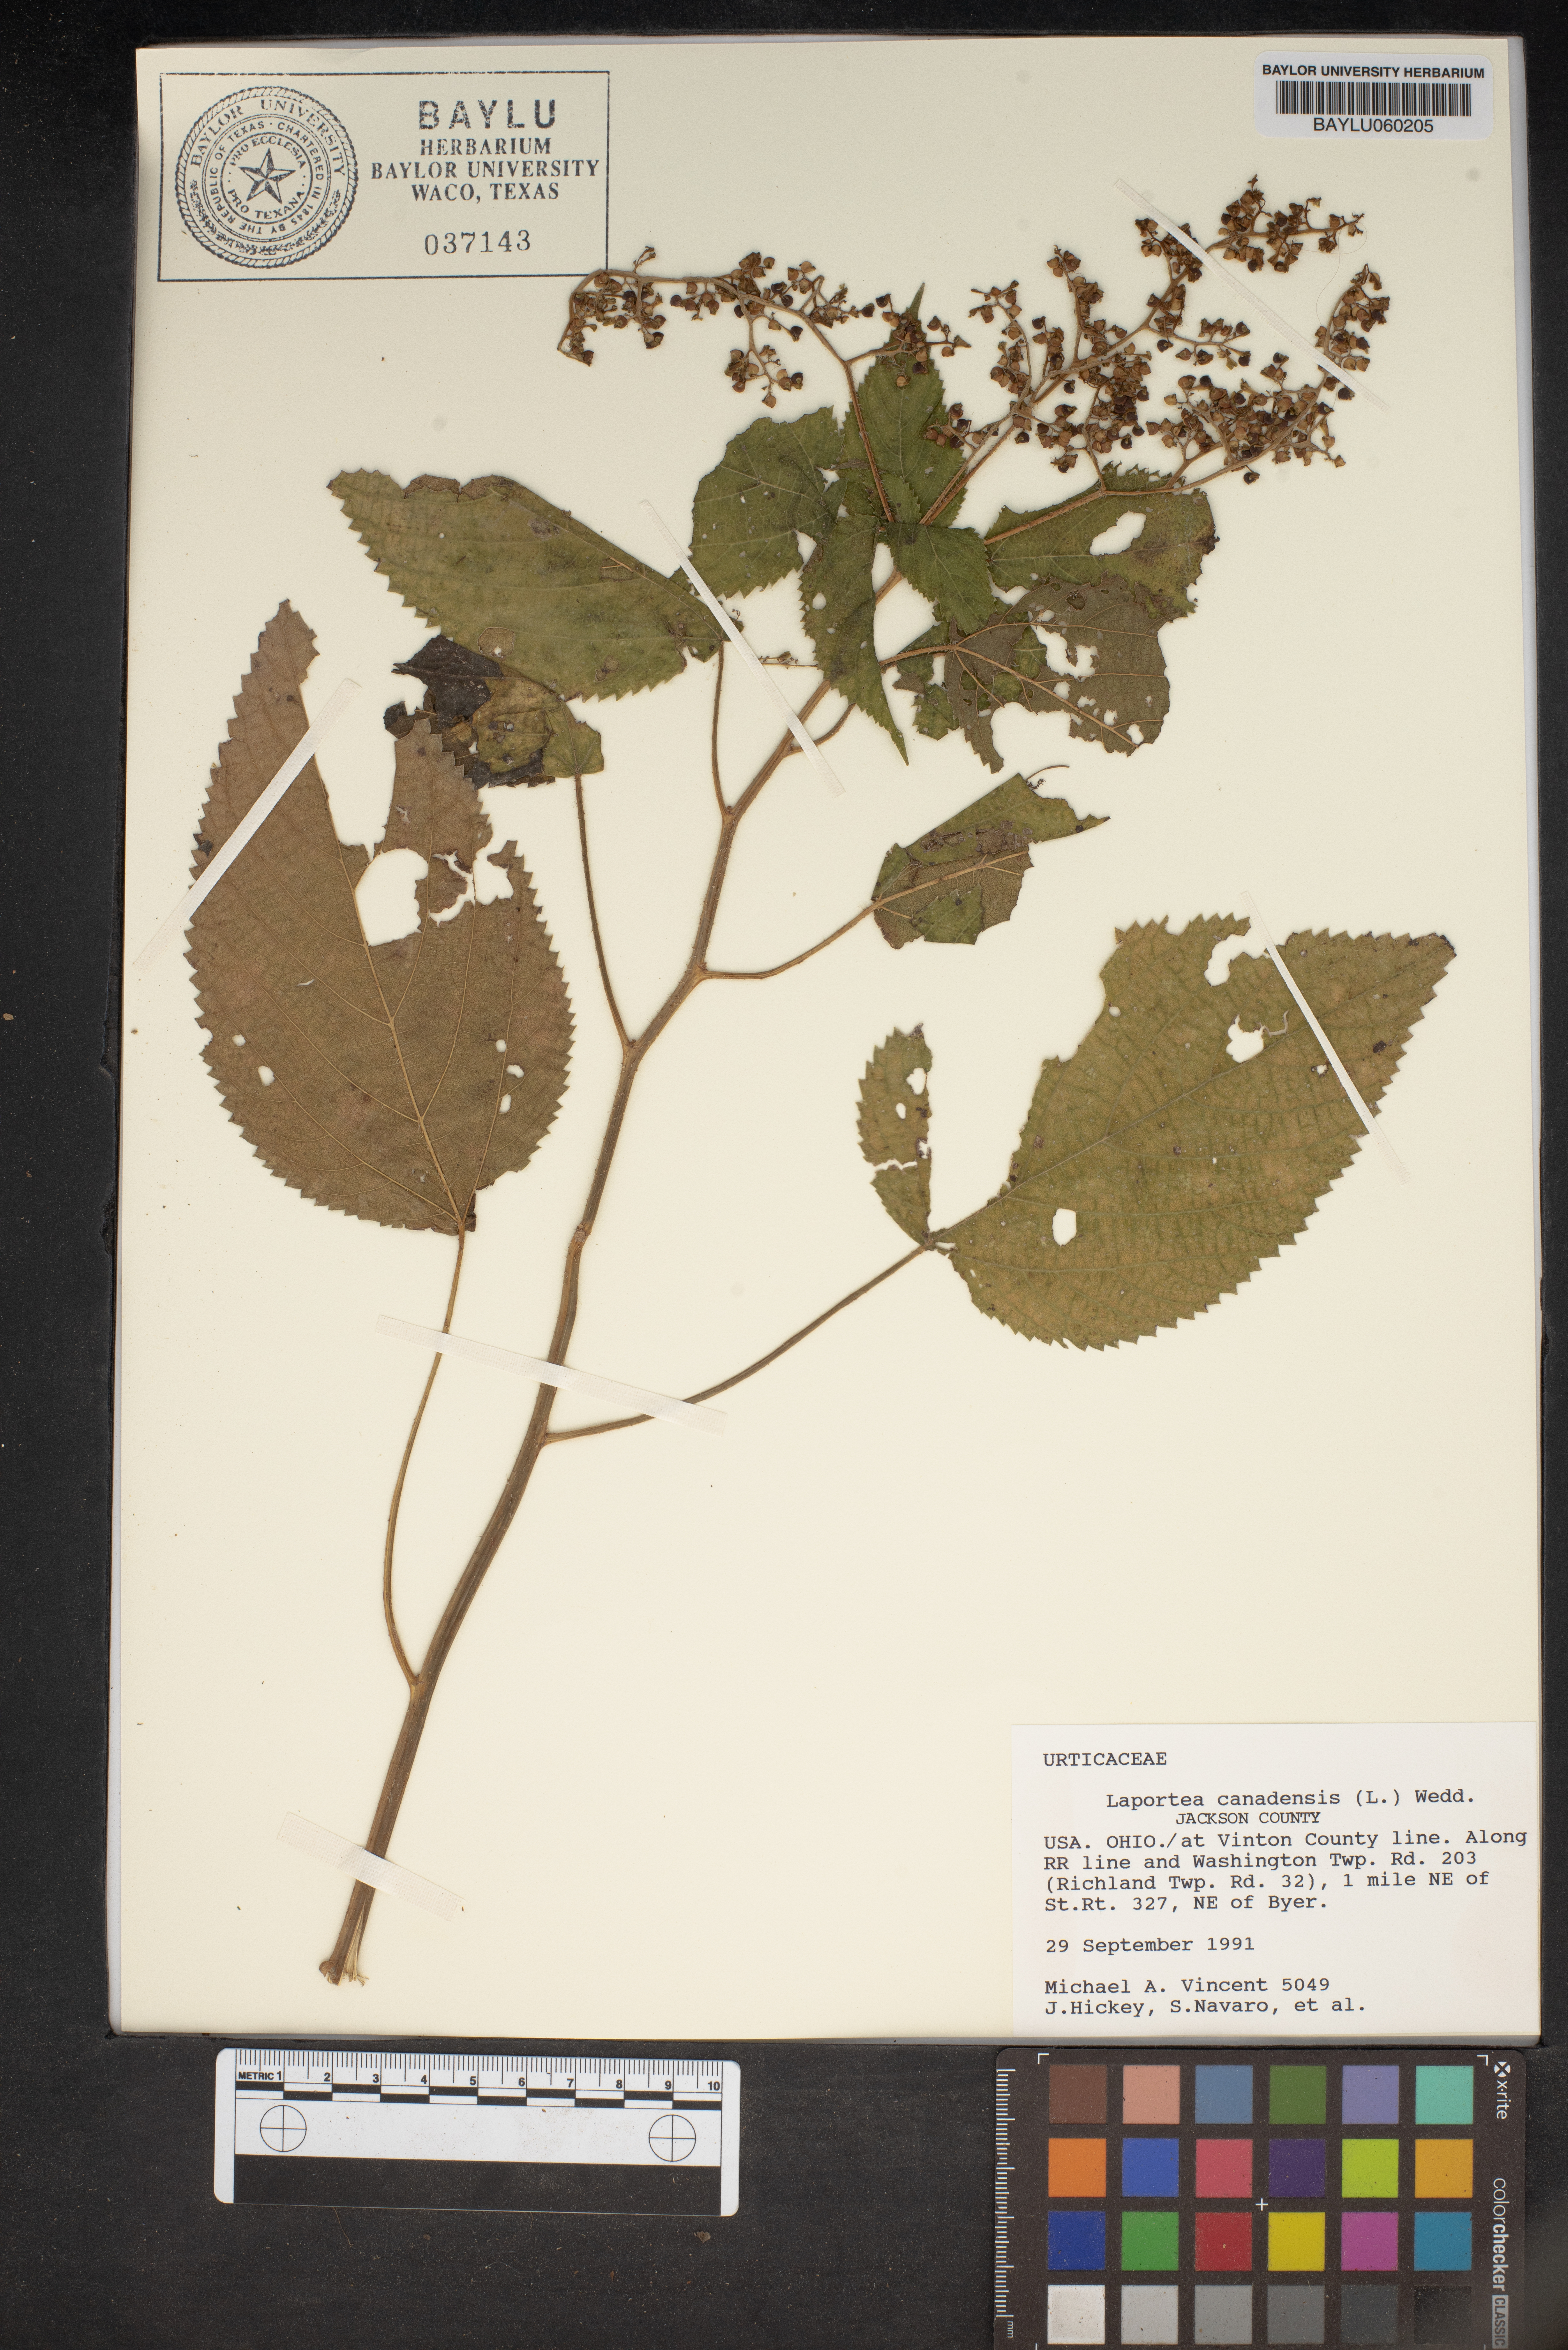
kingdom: Plantae
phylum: Tracheophyta
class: Magnoliopsida
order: Rosales
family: Urticaceae
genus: Laportea
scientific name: Laportea canadensis
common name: Canada nettle
